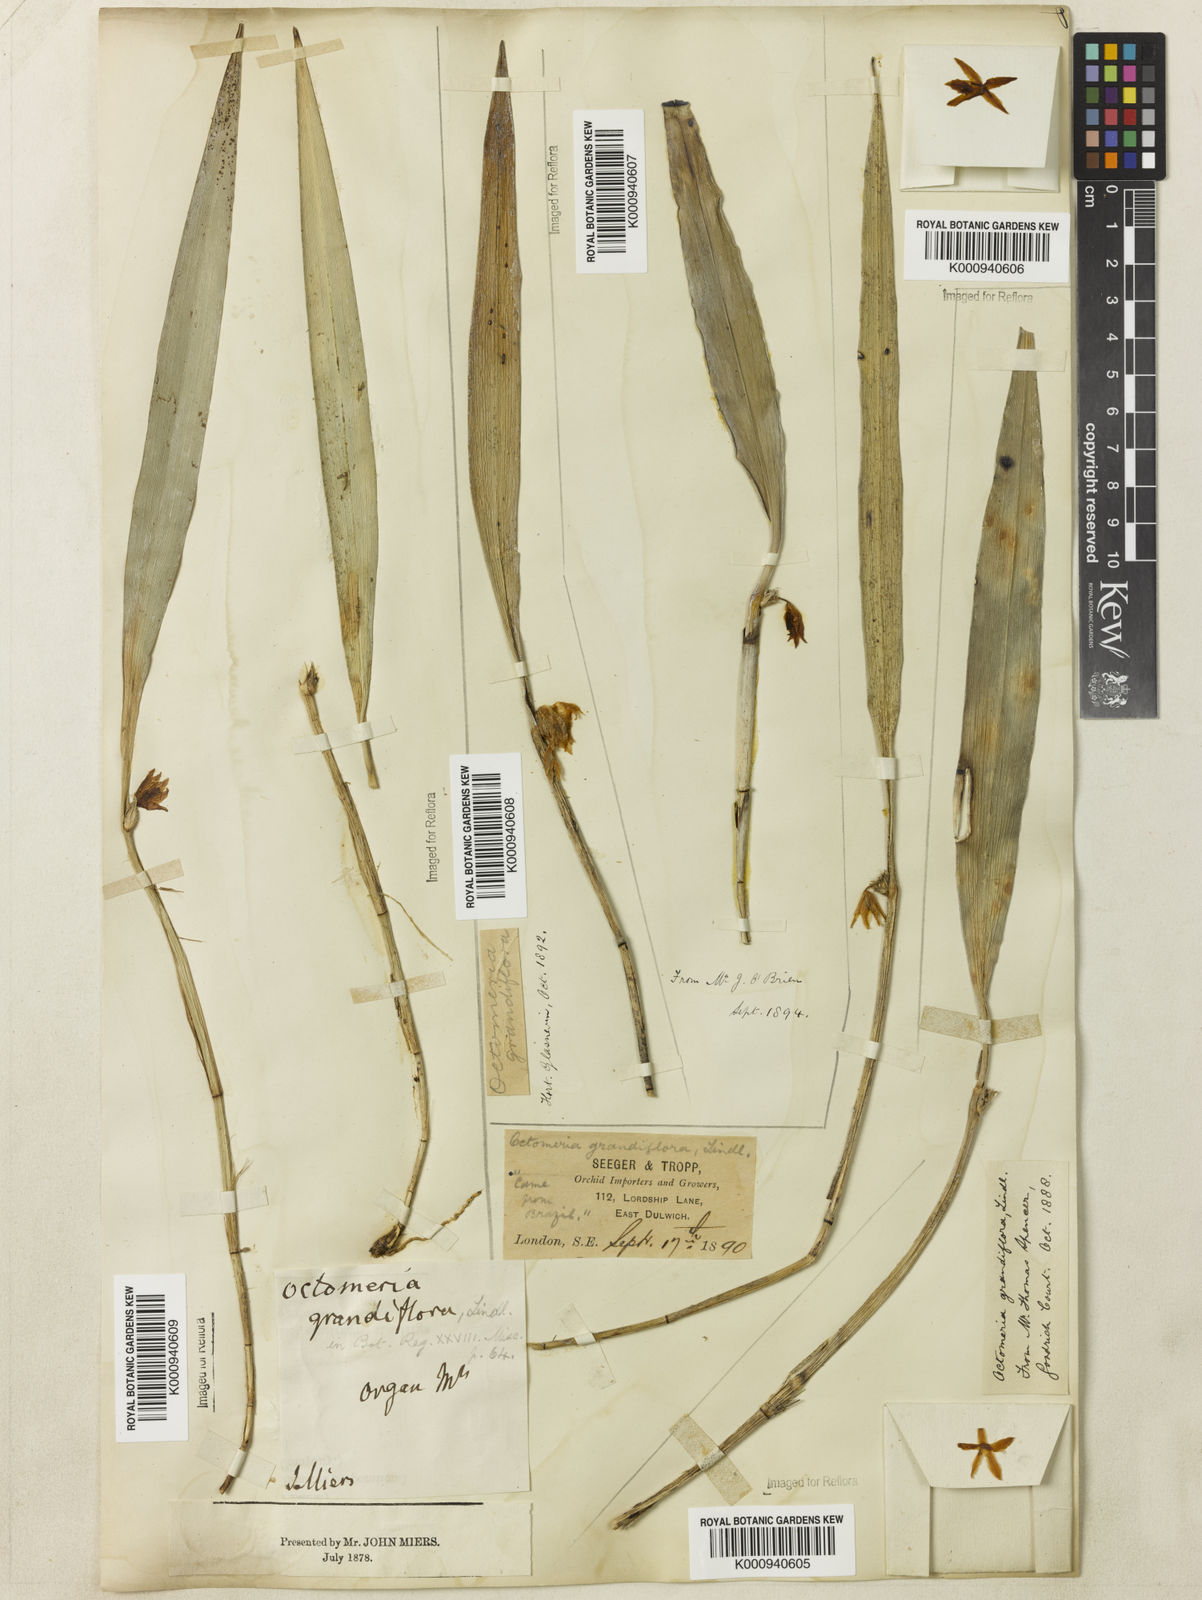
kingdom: Plantae
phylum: Tracheophyta
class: Liliopsida
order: Asparagales
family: Orchidaceae
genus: Octomeria
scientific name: Octomeria grandiflora
